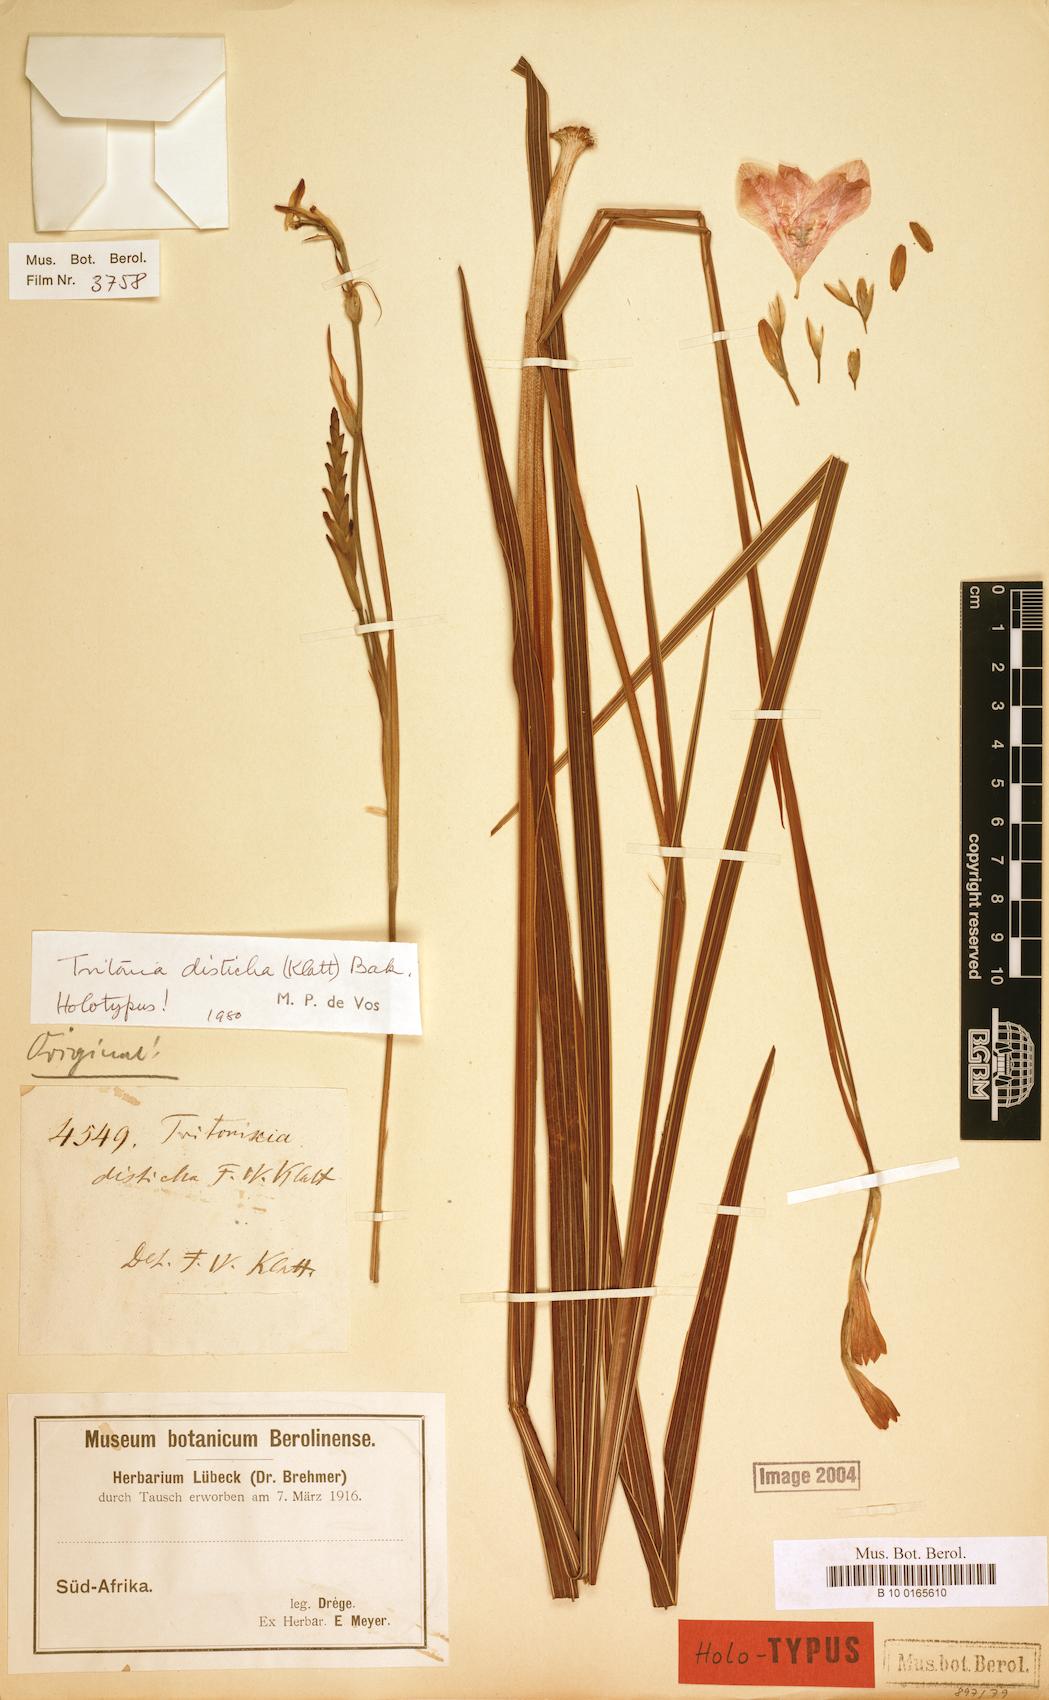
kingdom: Plantae
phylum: Tracheophyta
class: Liliopsida
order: Asparagales
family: Iridaceae
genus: Tritonia
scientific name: Tritonia disticha
